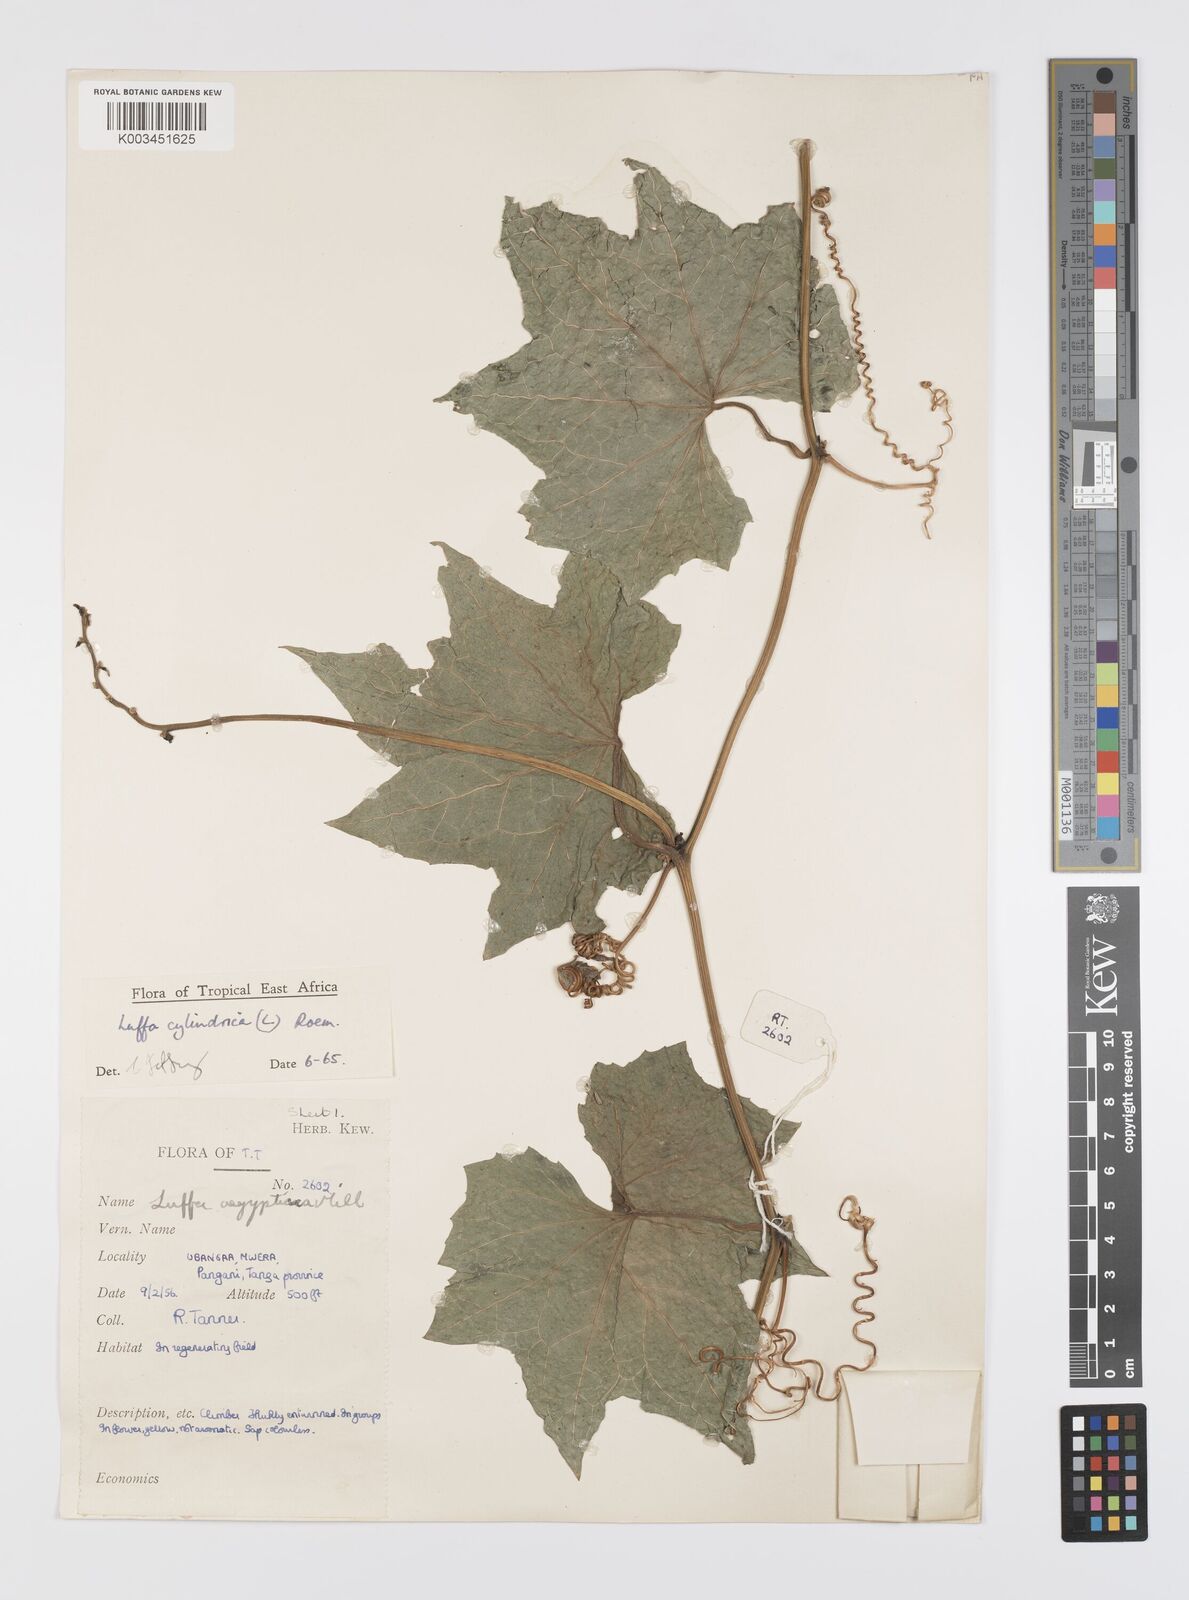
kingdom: Plantae
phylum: Tracheophyta
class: Magnoliopsida
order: Cucurbitales
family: Cucurbitaceae
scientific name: Cucurbitaceae
